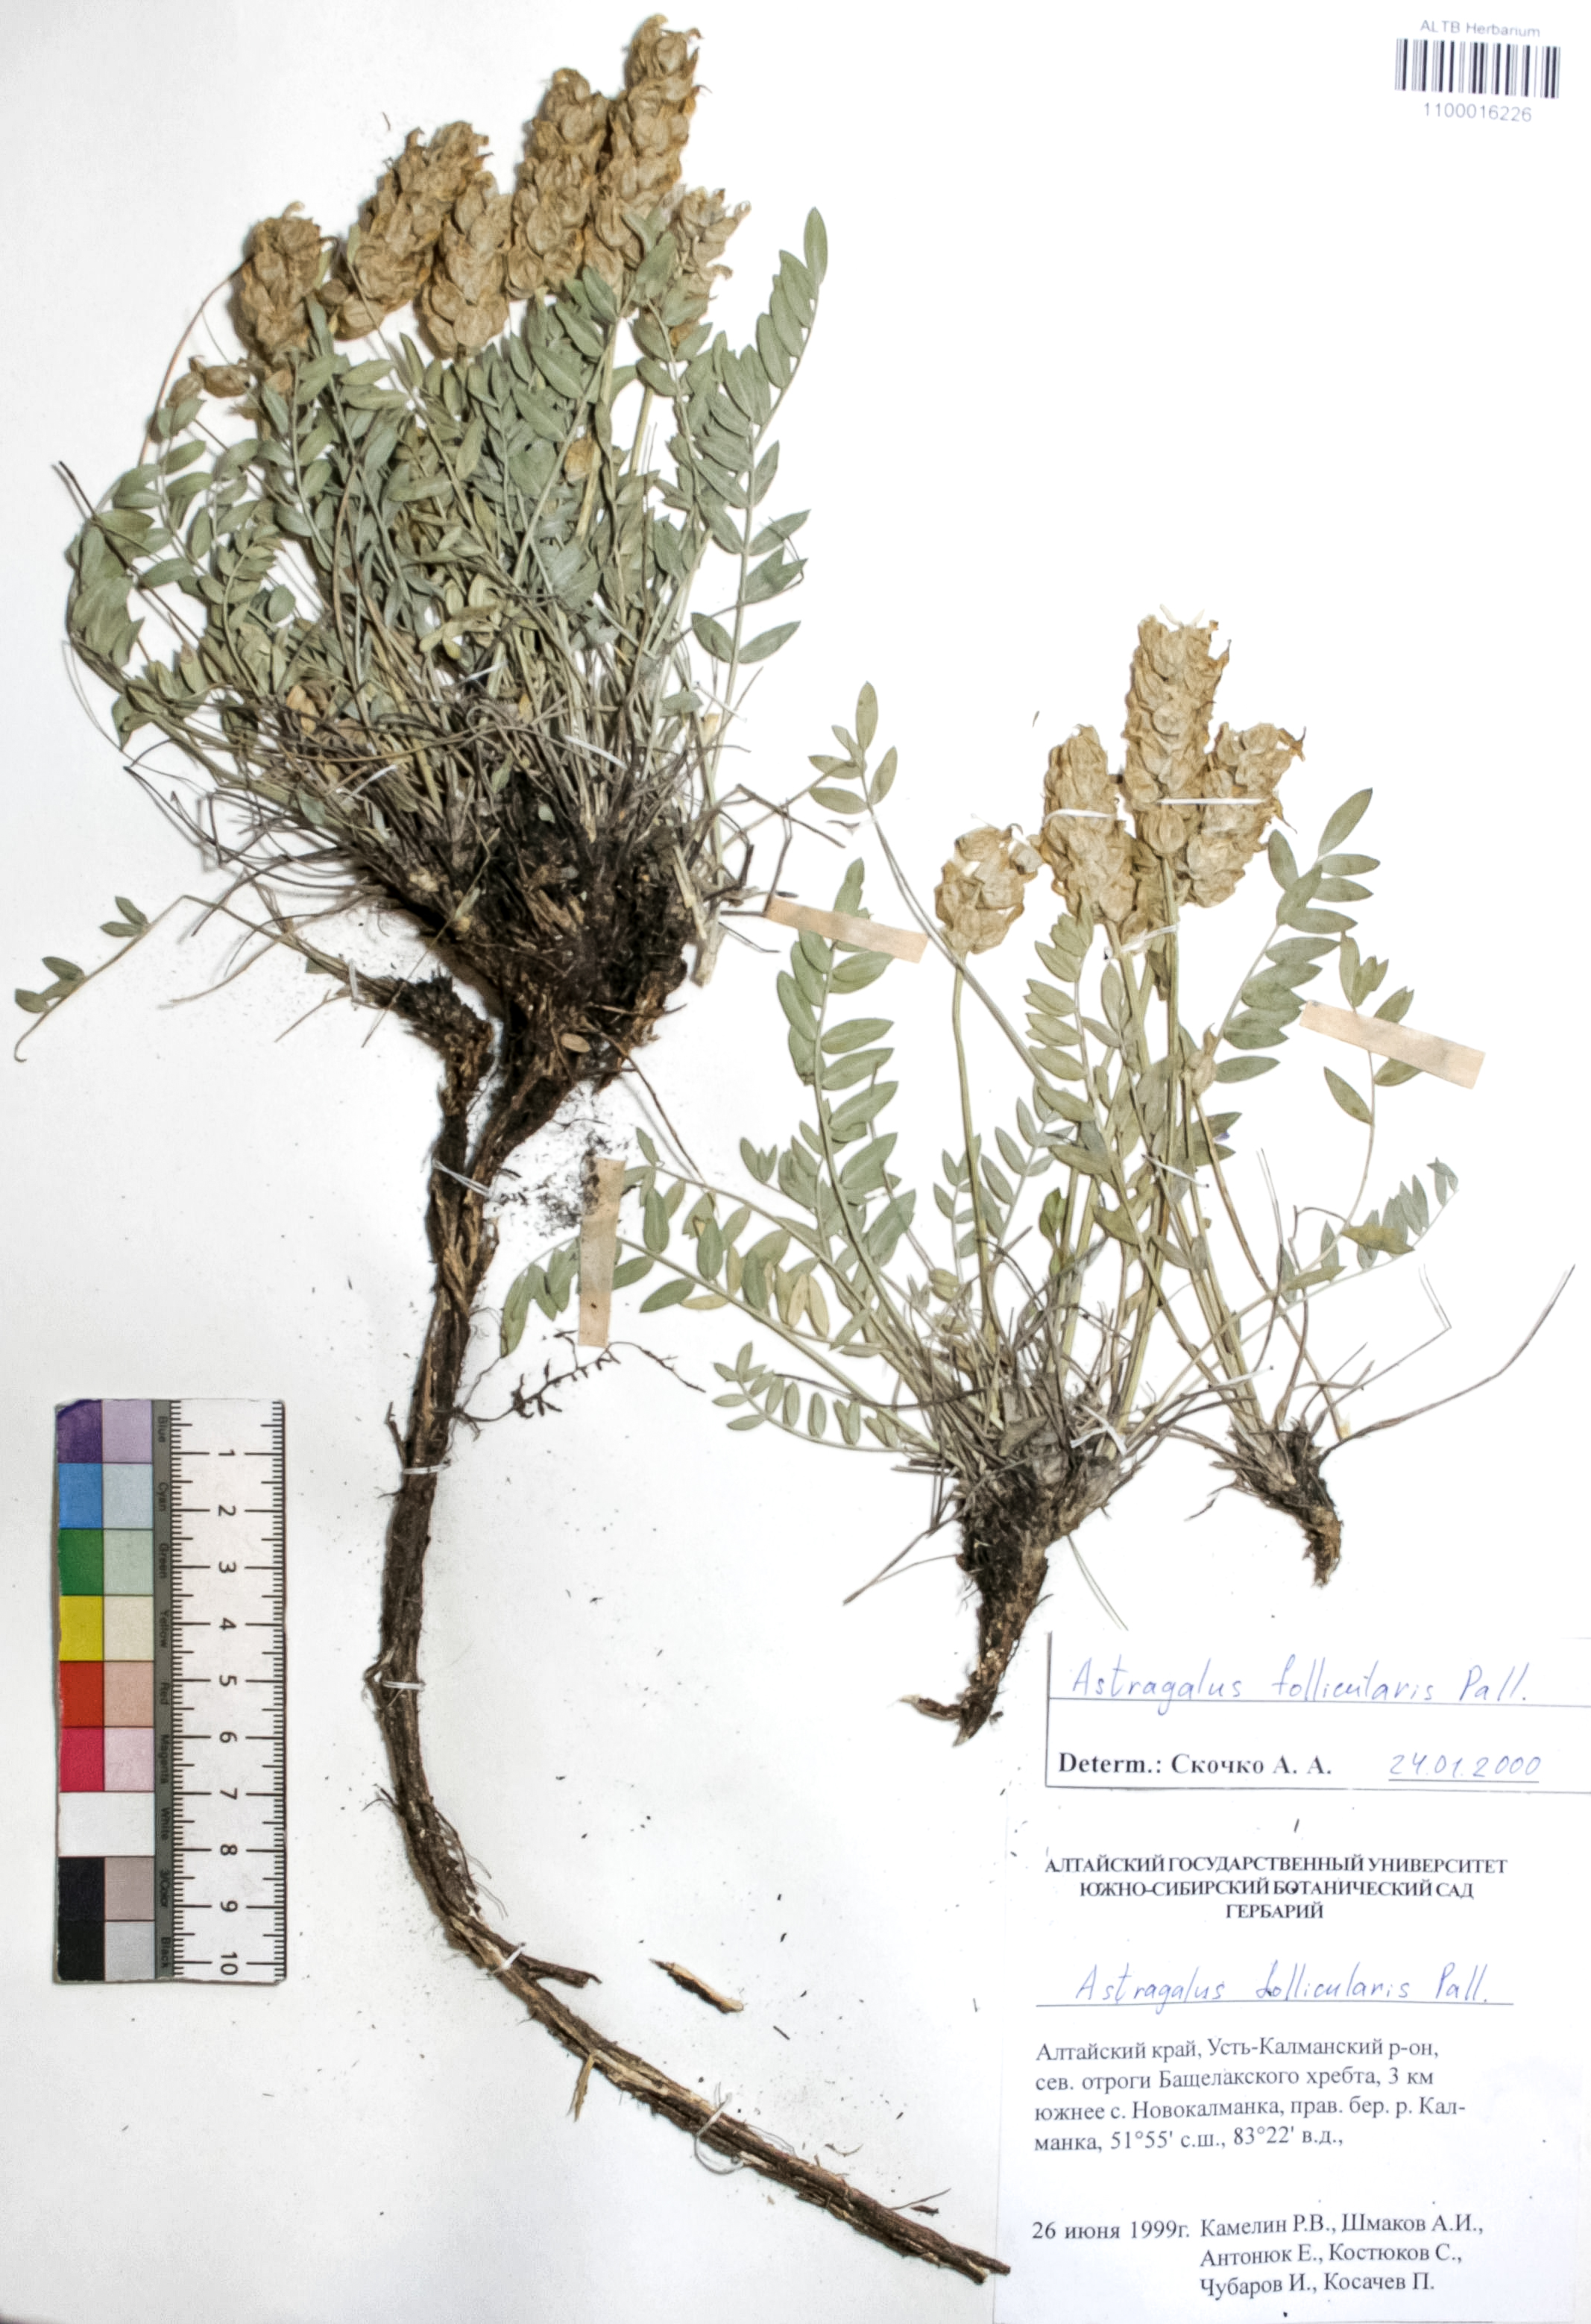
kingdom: Plantae
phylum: Tracheophyta
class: Magnoliopsida
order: Fabales
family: Fabaceae
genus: Astragalus
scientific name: Astragalus follicularis
